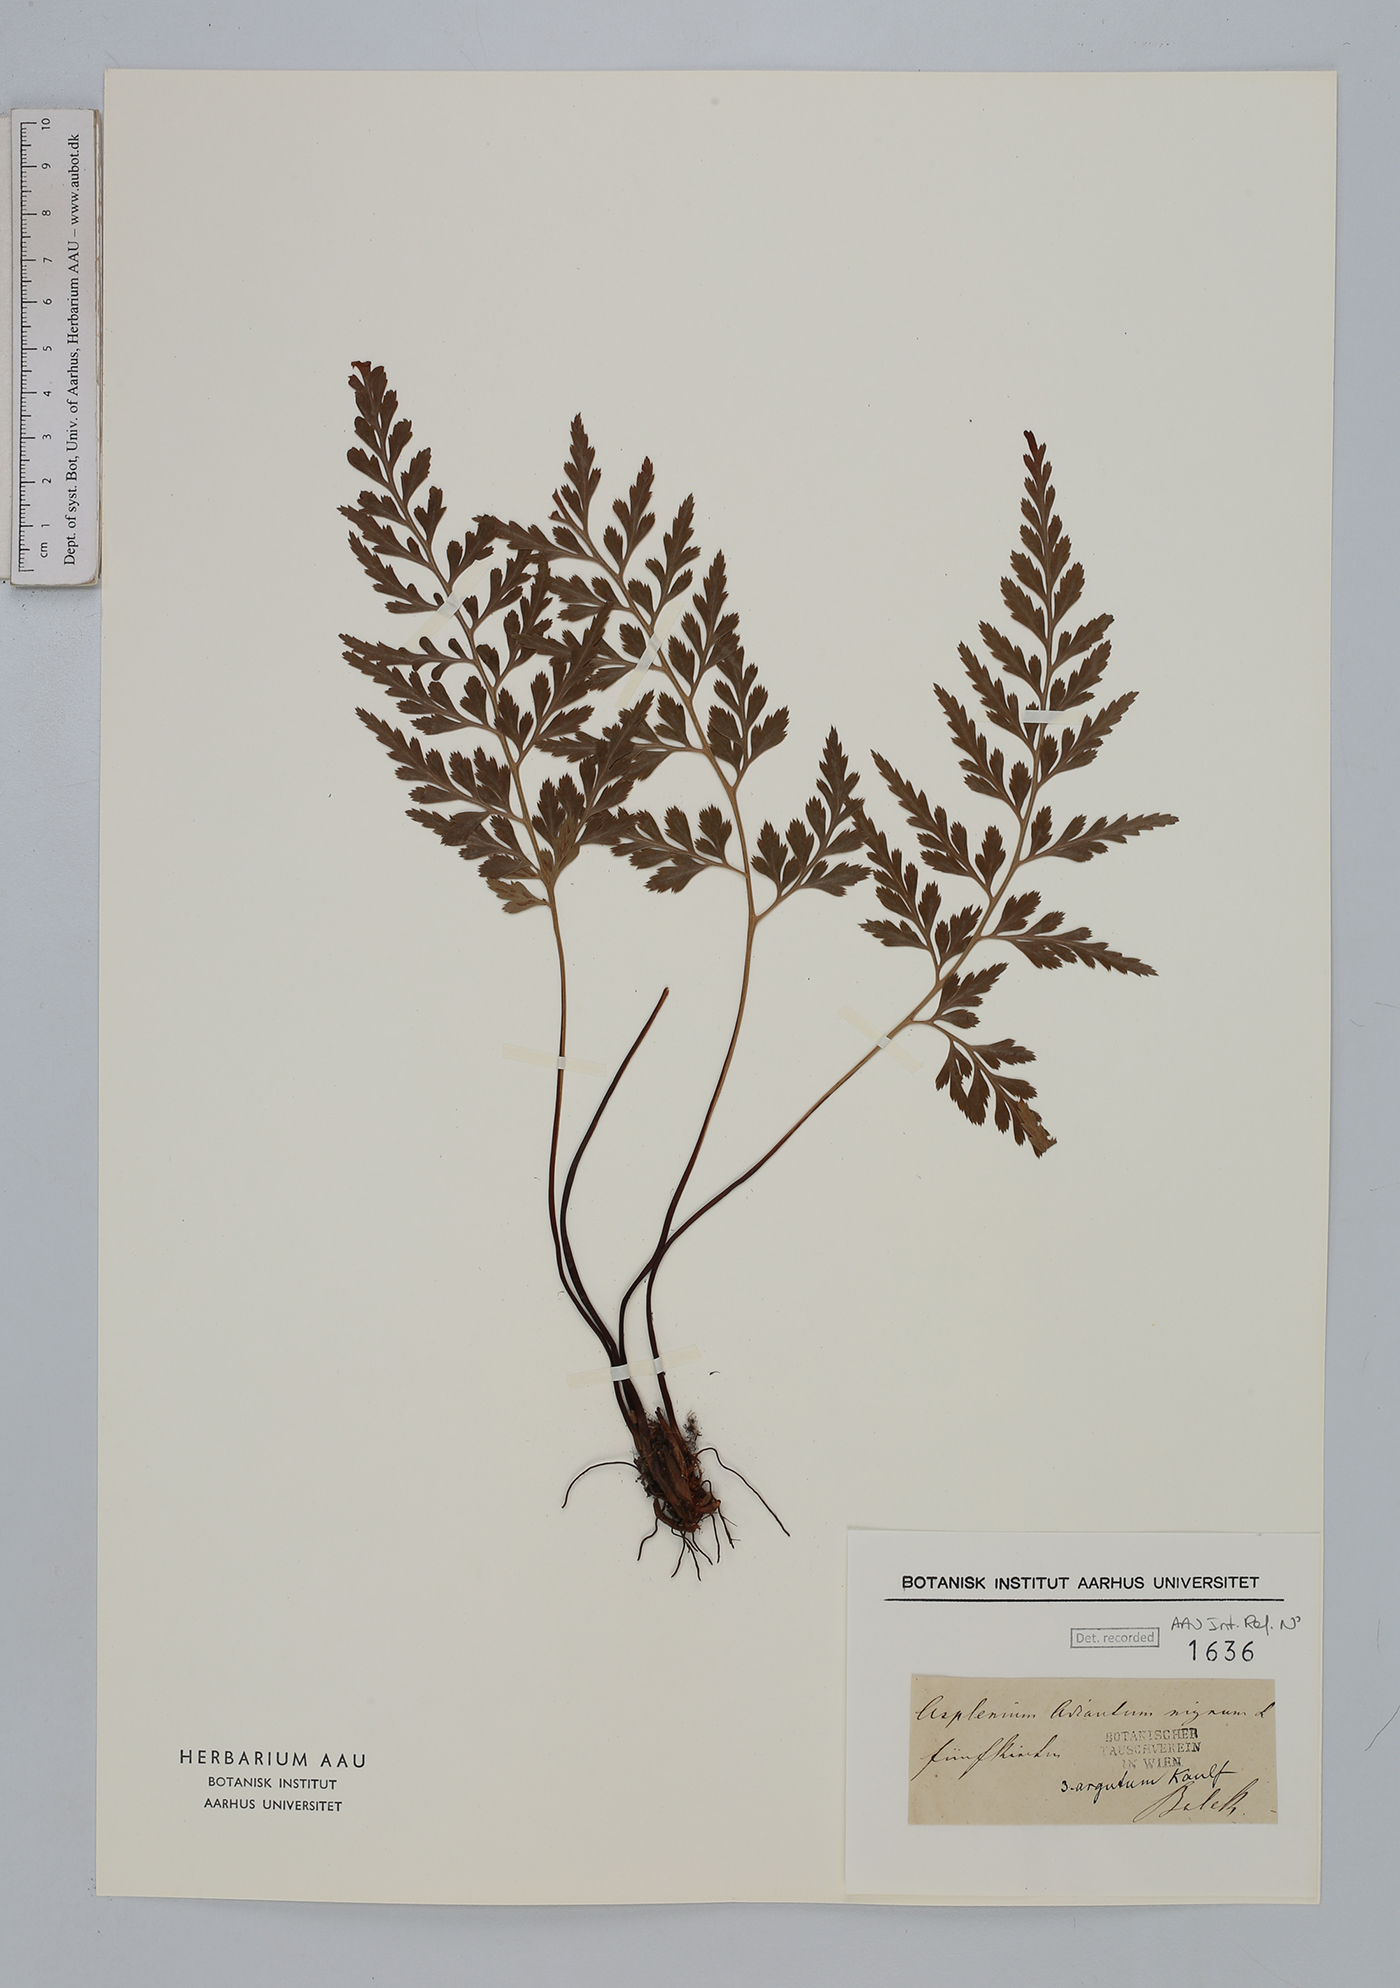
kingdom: Plantae
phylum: Tracheophyta
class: Polypodiopsida
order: Polypodiales
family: Aspleniaceae
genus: Asplenium
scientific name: Asplenium adiantum-nigrum
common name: Black spleenwort
